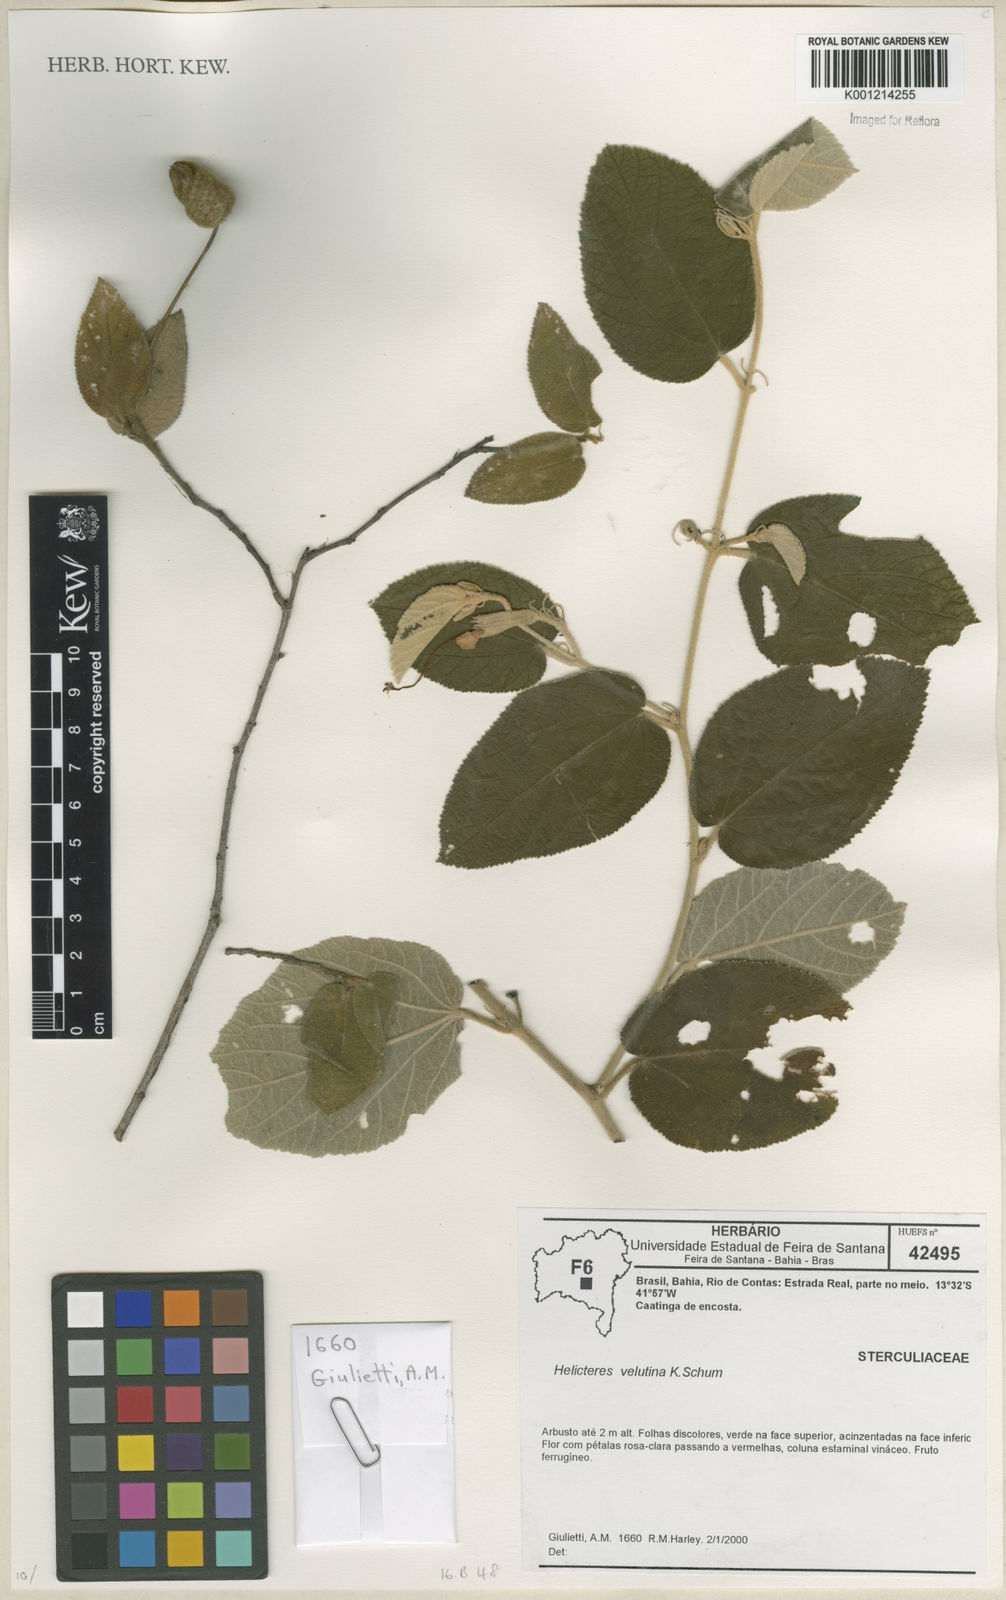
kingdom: Plantae
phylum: Tracheophyta
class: Magnoliopsida
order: Malvales
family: Malvaceae
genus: Helicteres
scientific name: Helicteres velutina
